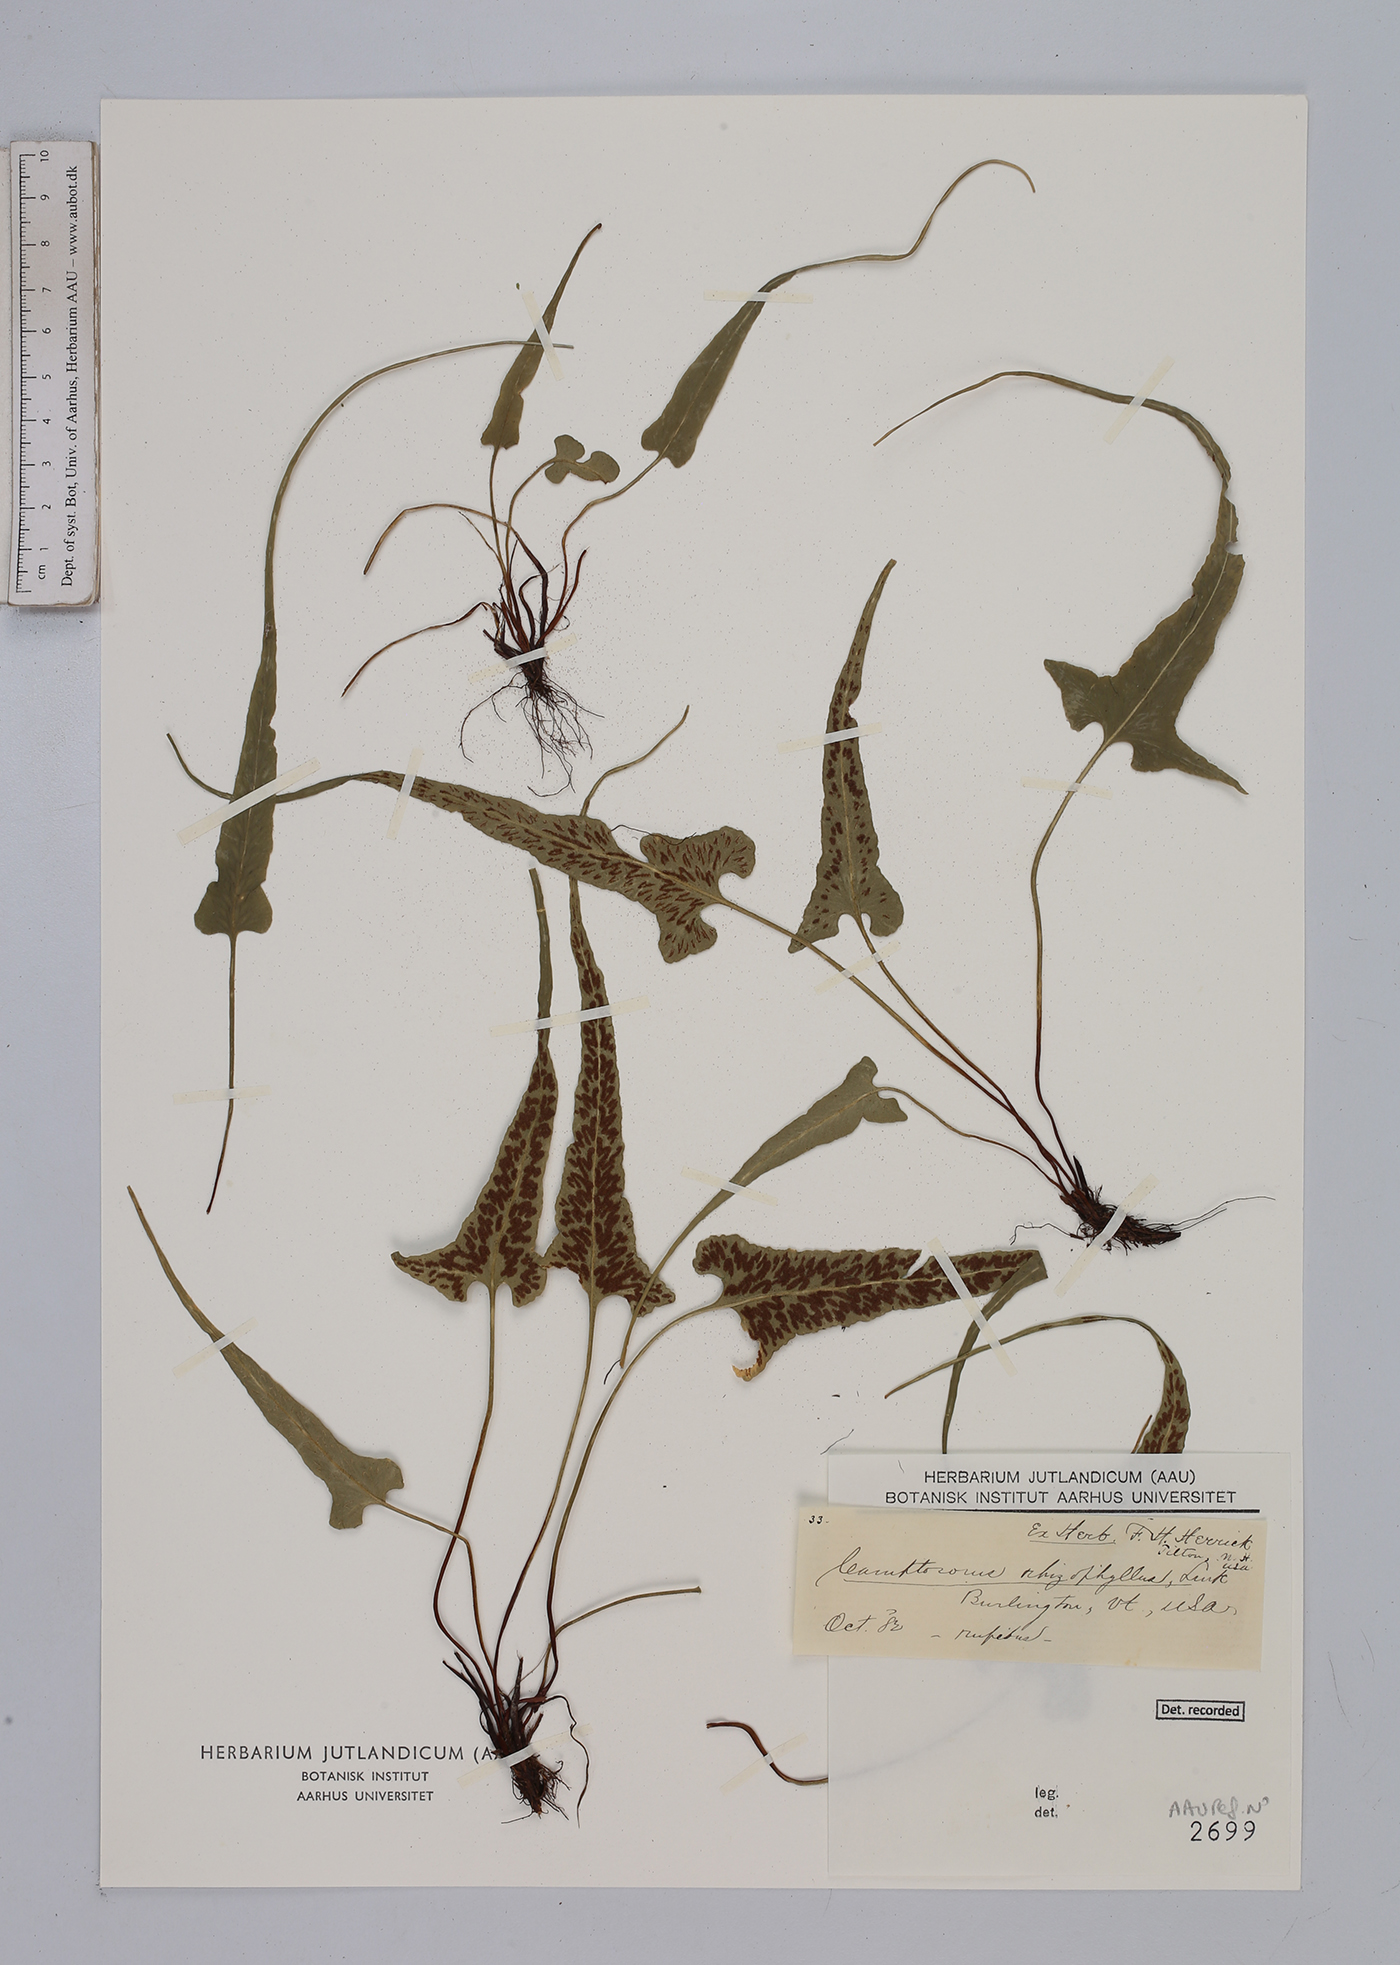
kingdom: Plantae
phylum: Tracheophyta
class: Polypodiopsida
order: Polypodiales
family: Aspleniaceae
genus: Asplenium
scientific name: Asplenium rhizophyllum
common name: Walking fern
